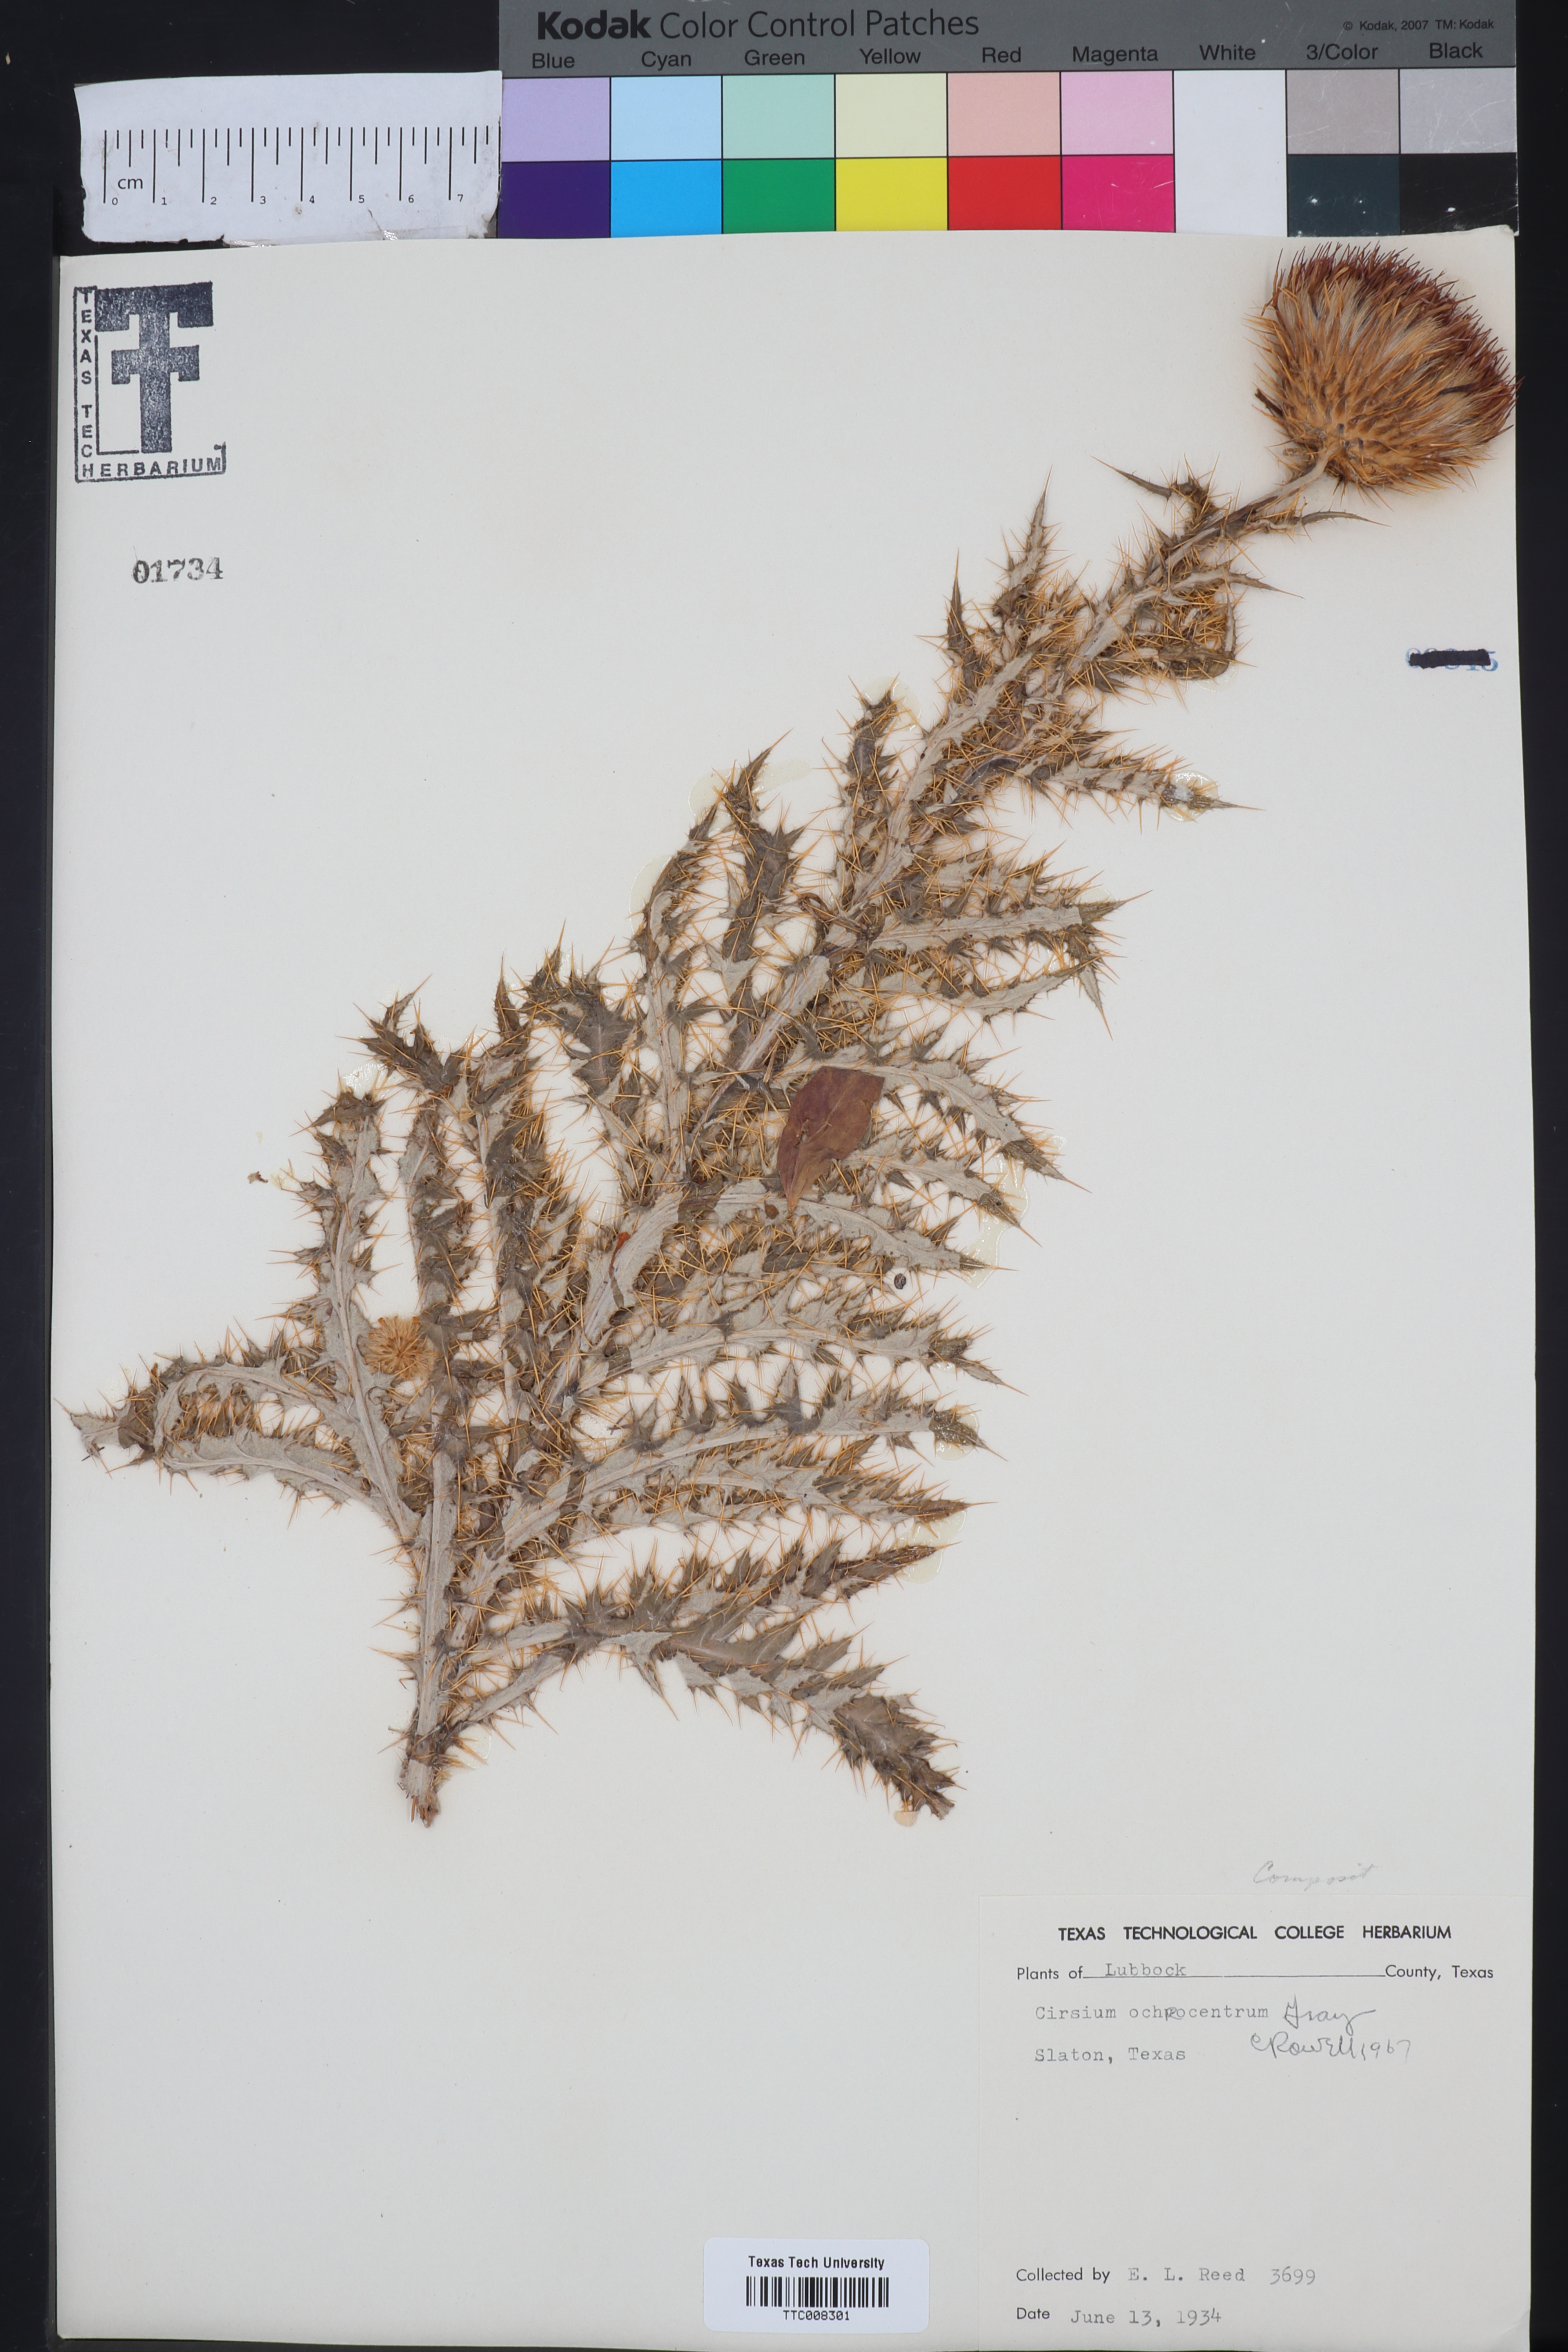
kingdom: Plantae
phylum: Tracheophyta
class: Magnoliopsida
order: Asterales
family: Asteraceae
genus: Cirsium
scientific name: Cirsium ochrocentrum
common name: Yellow-spine thistle
